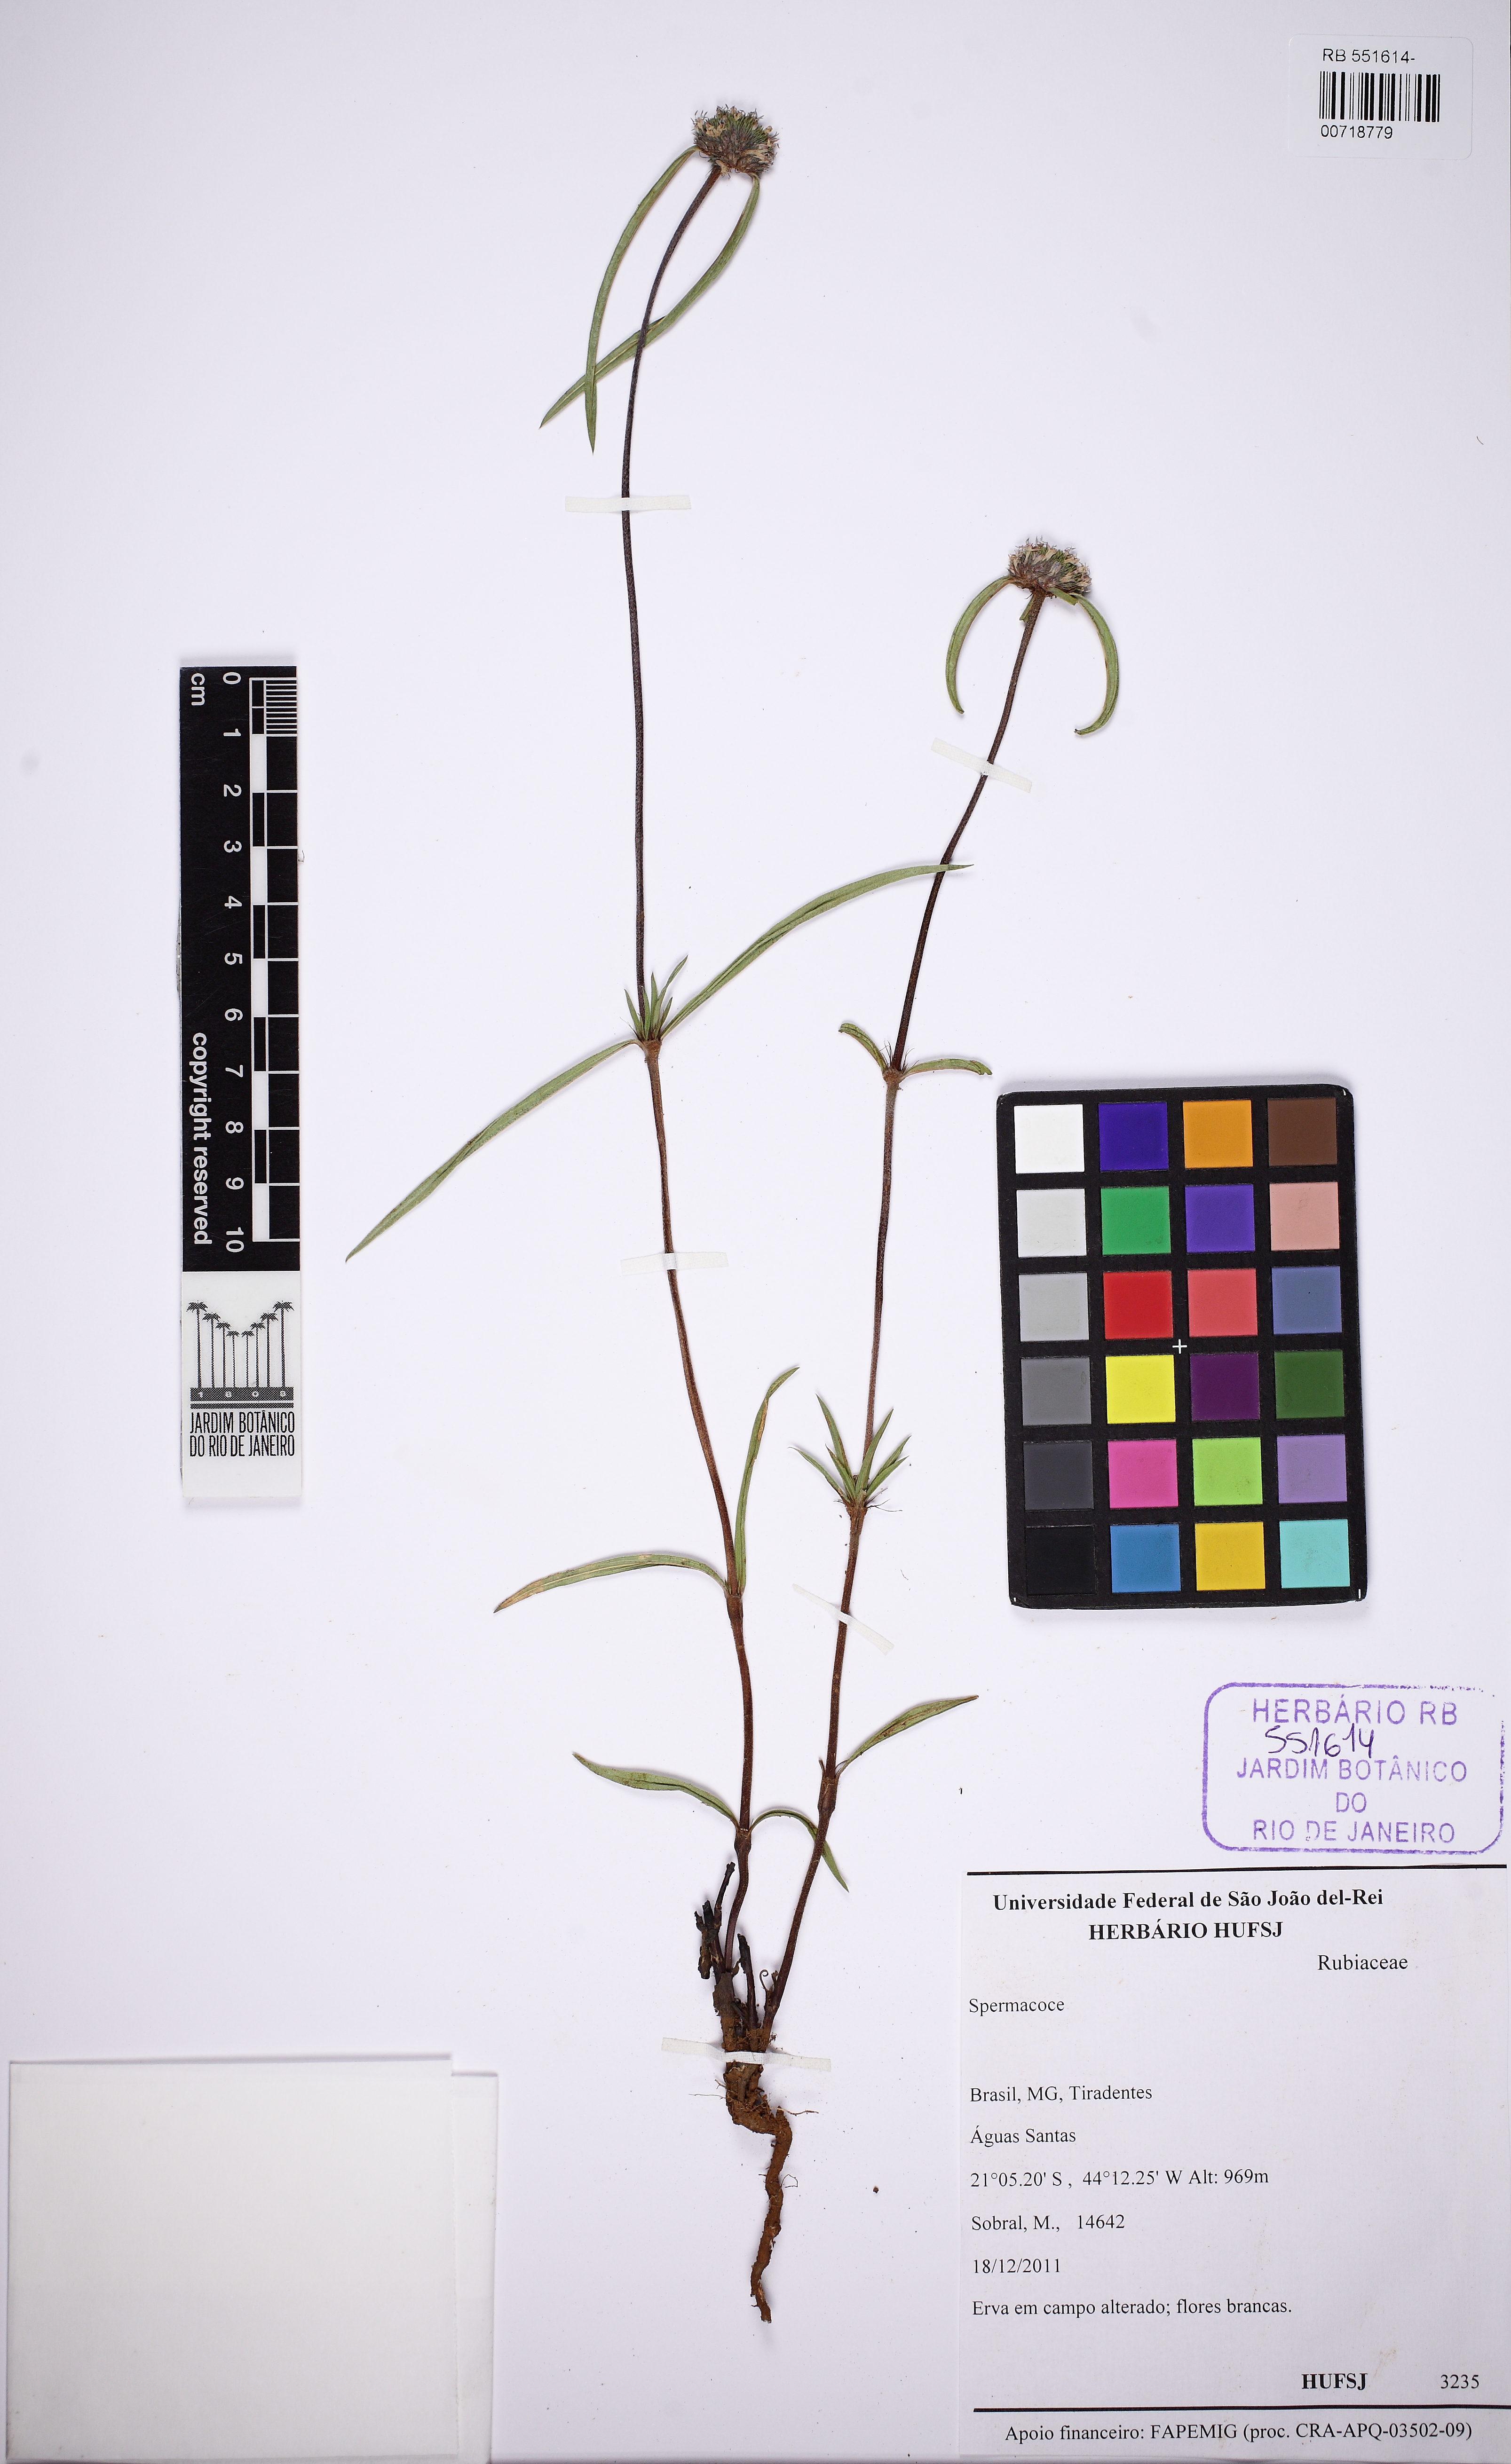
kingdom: Plantae
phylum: Tracheophyta
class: Magnoliopsida
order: Gentianales
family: Rubiaceae
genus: Spermacoce
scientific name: Spermacoce orinocensis
